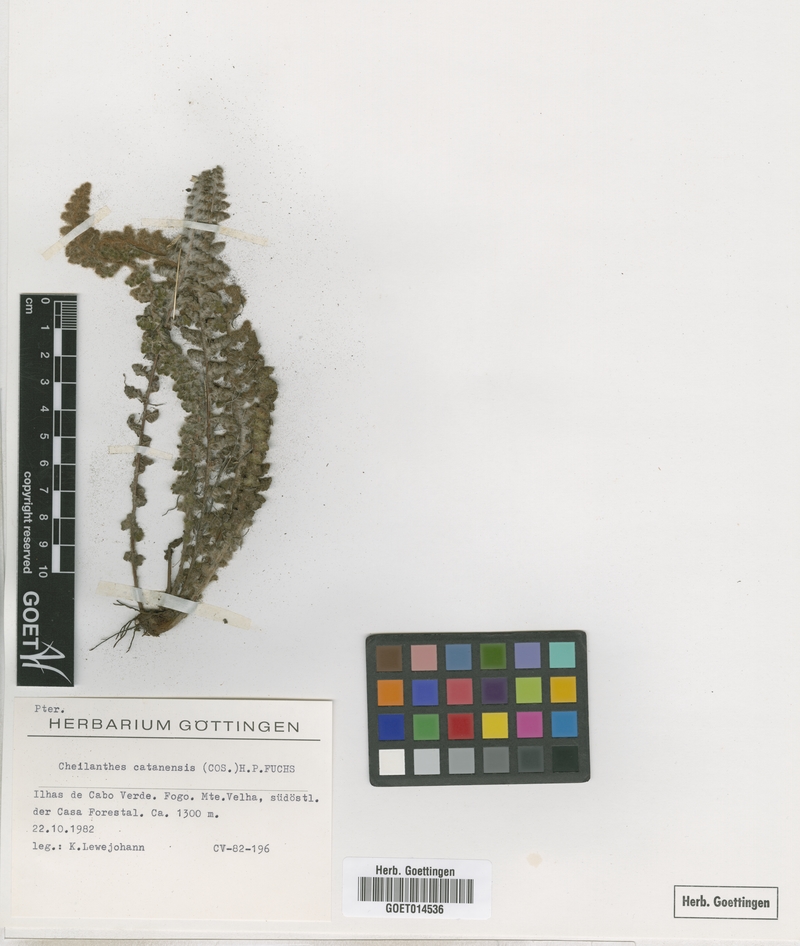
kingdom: Plantae
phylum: Tracheophyta
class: Polypodiopsida
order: Polypodiales
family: Pteridaceae
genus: Cosentinia
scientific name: Cosentinia vellea
